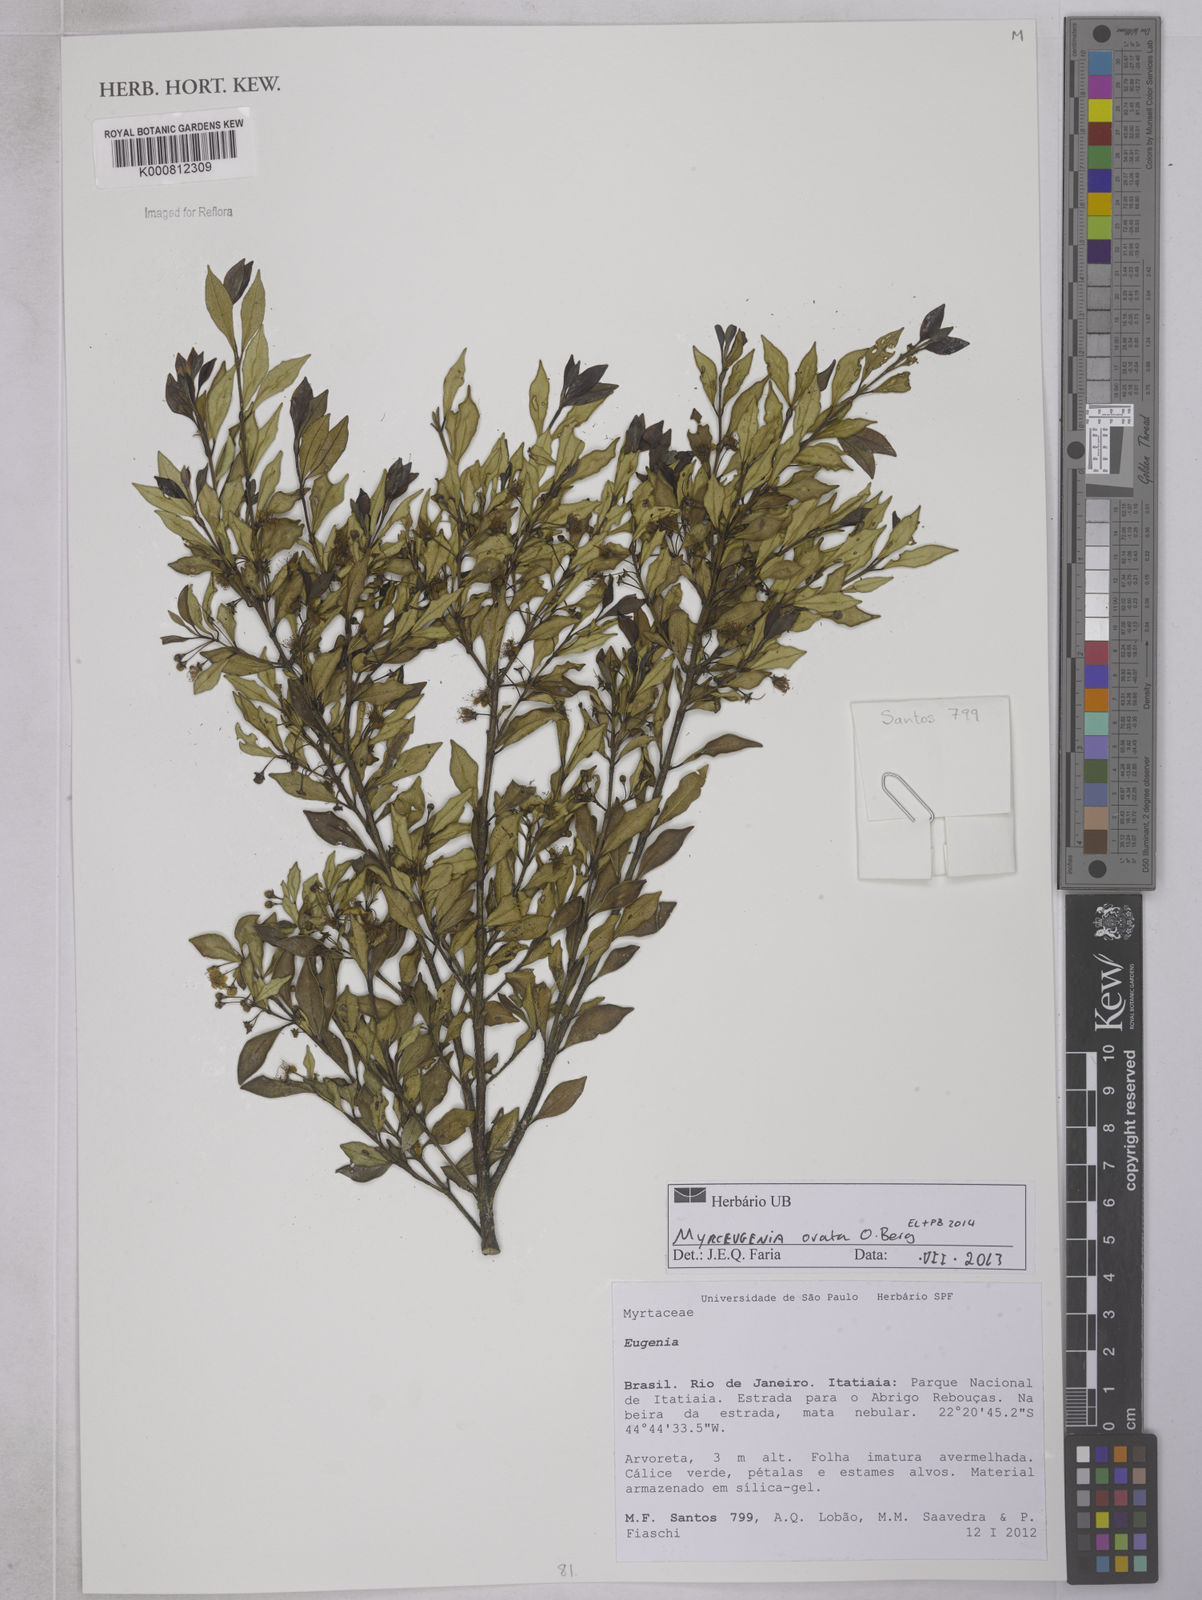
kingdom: Plantae
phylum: Tracheophyta
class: Magnoliopsida
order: Myrtales
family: Myrtaceae
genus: Myrceugenia
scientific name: Myrceugenia ovata
